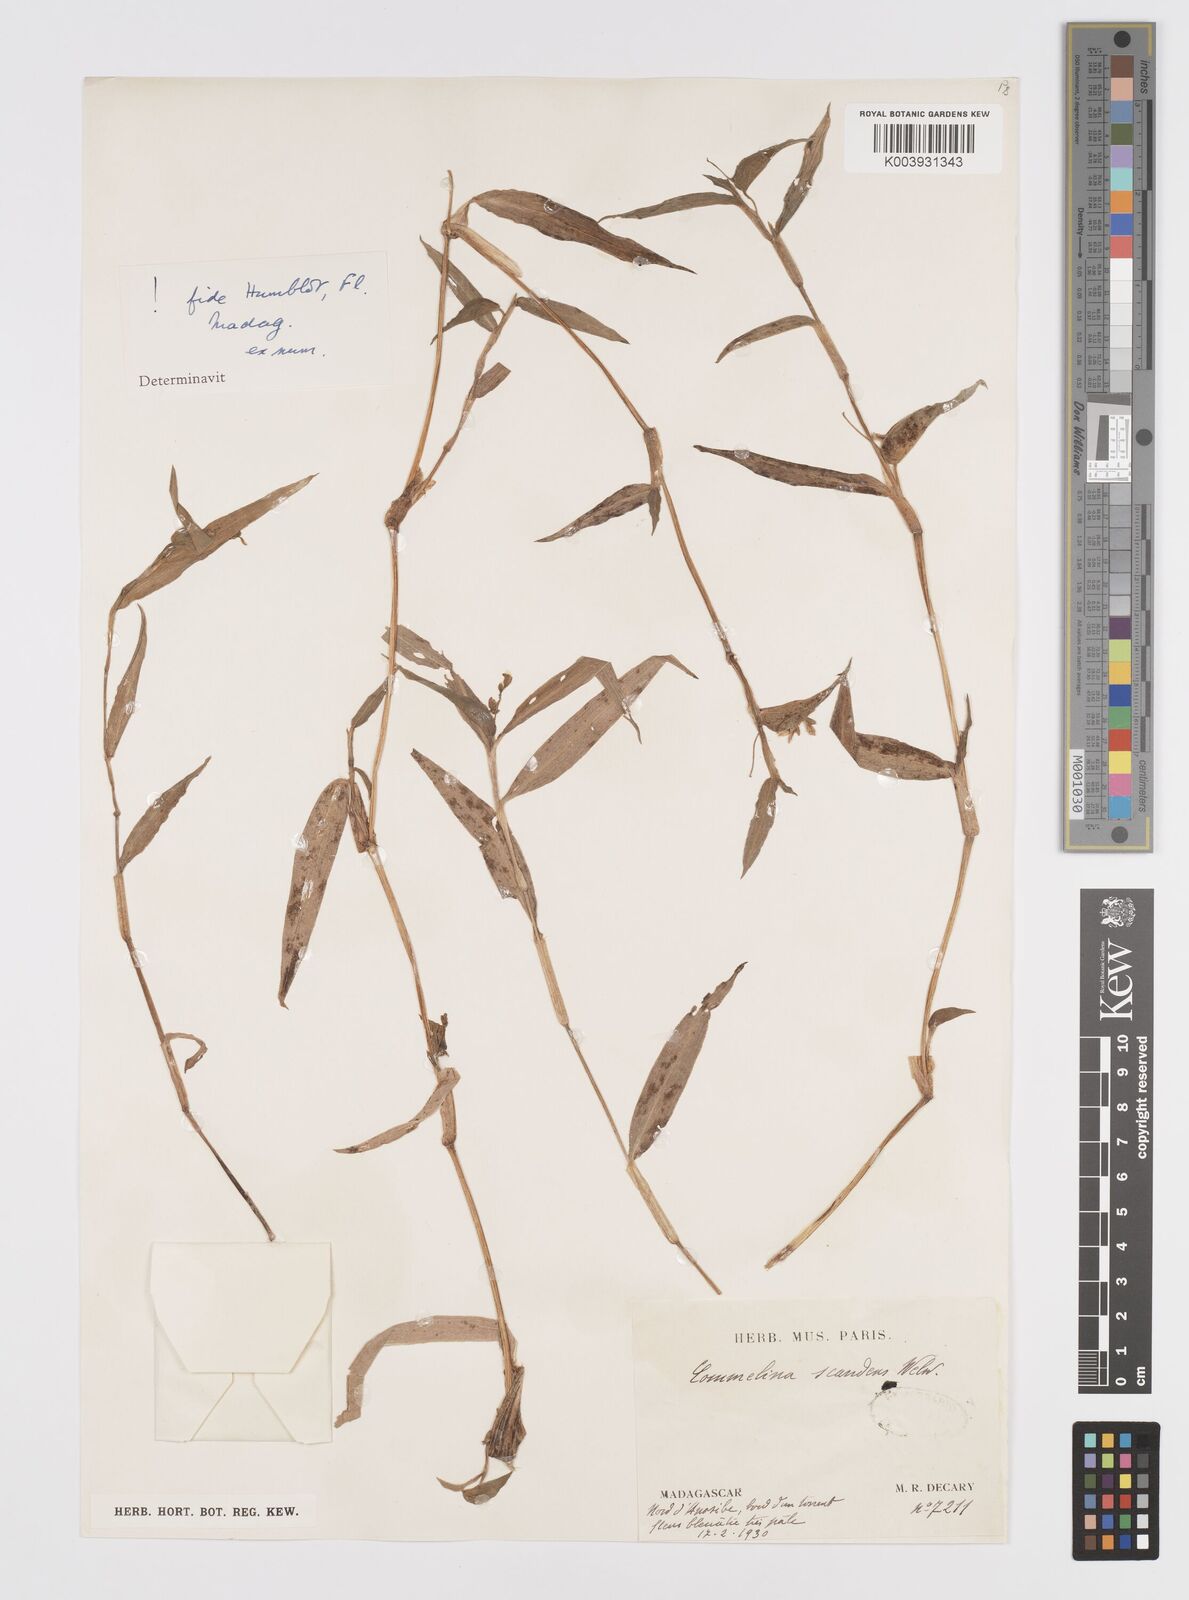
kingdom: Plantae
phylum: Tracheophyta
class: Liliopsida
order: Commelinales
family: Commelinaceae
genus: Commelina
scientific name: Commelina scandens
